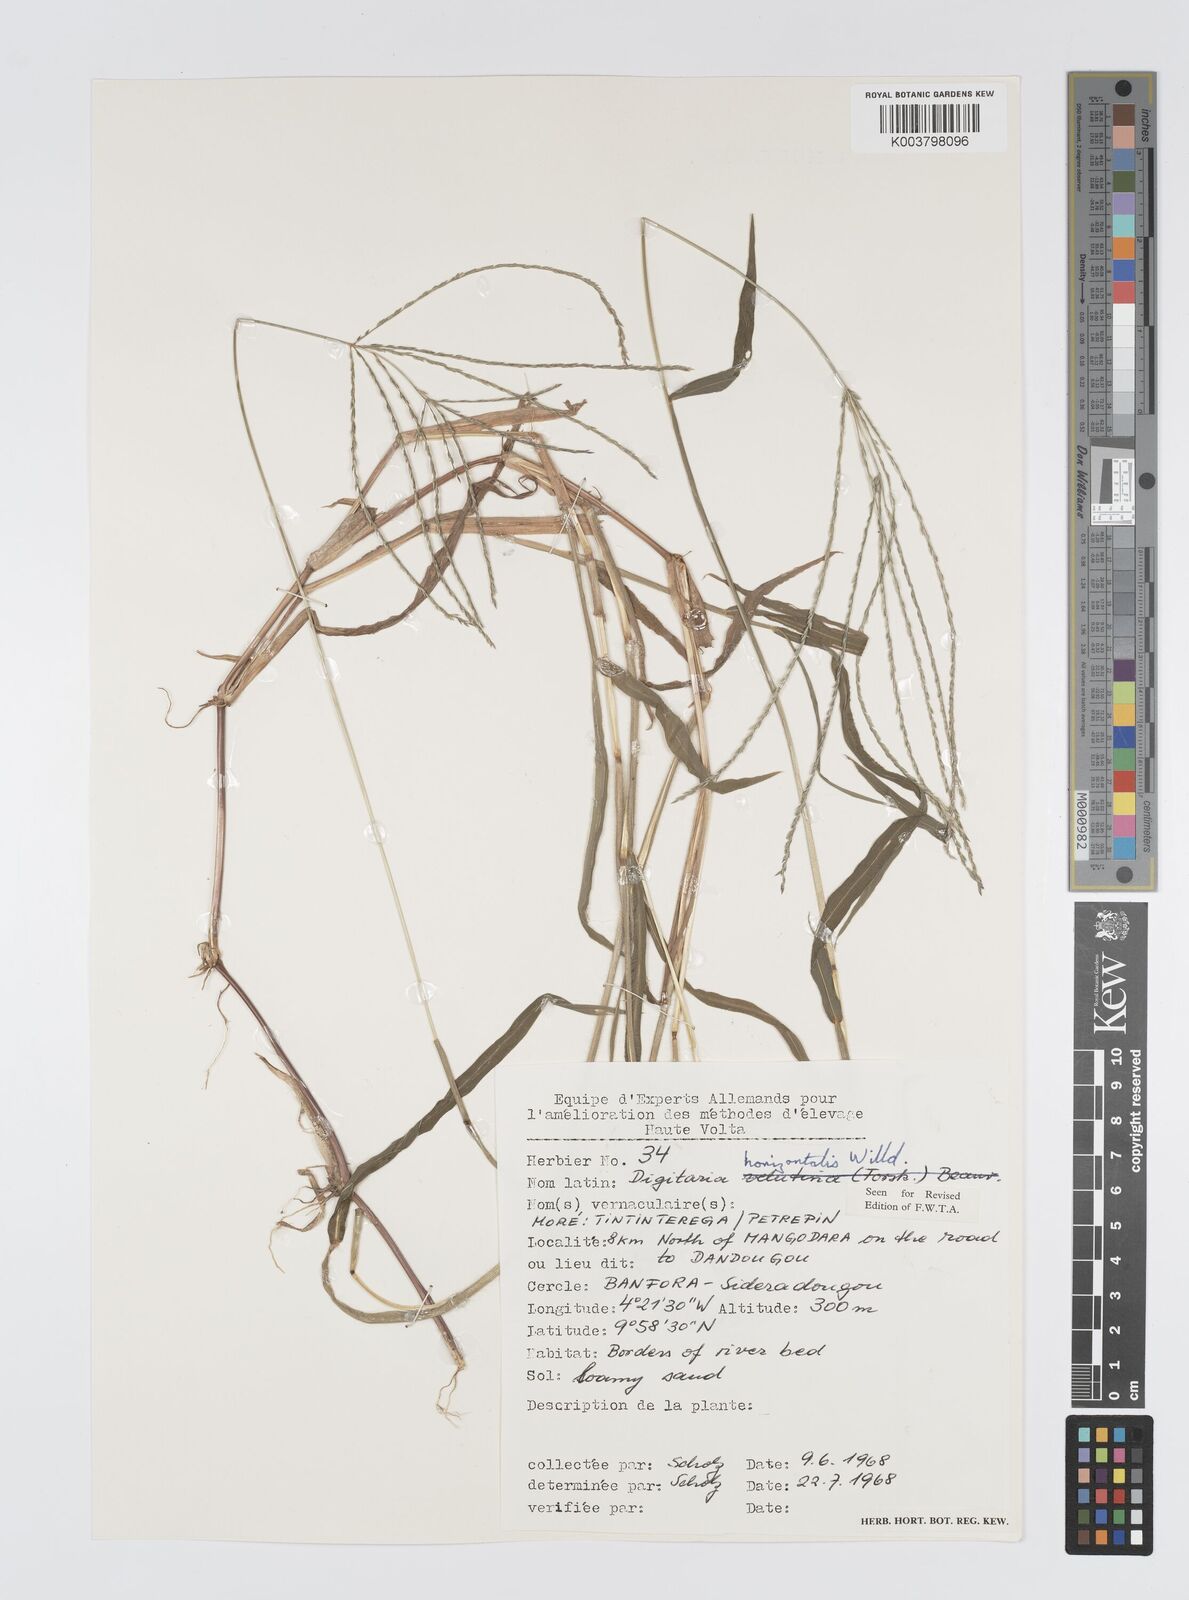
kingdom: Plantae
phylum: Tracheophyta
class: Liliopsida
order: Poales
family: Poaceae
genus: Digitaria
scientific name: Digitaria horizontalis
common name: Jamaican crabgrass
